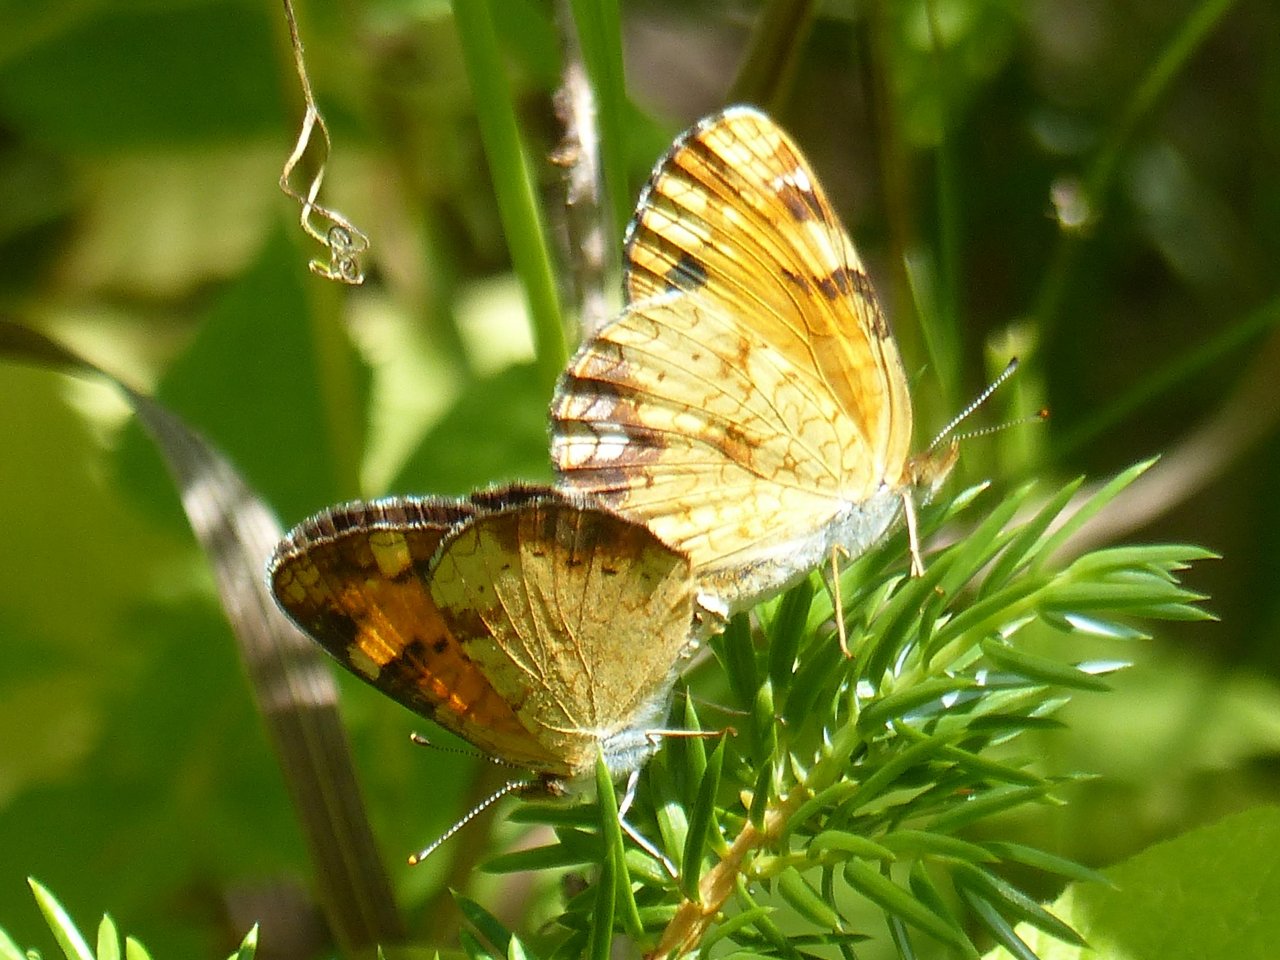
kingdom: Animalia
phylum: Arthropoda
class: Insecta
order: Lepidoptera
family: Nymphalidae
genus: Phyciodes
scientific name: Phyciodes tharos
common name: Northern Crescent
